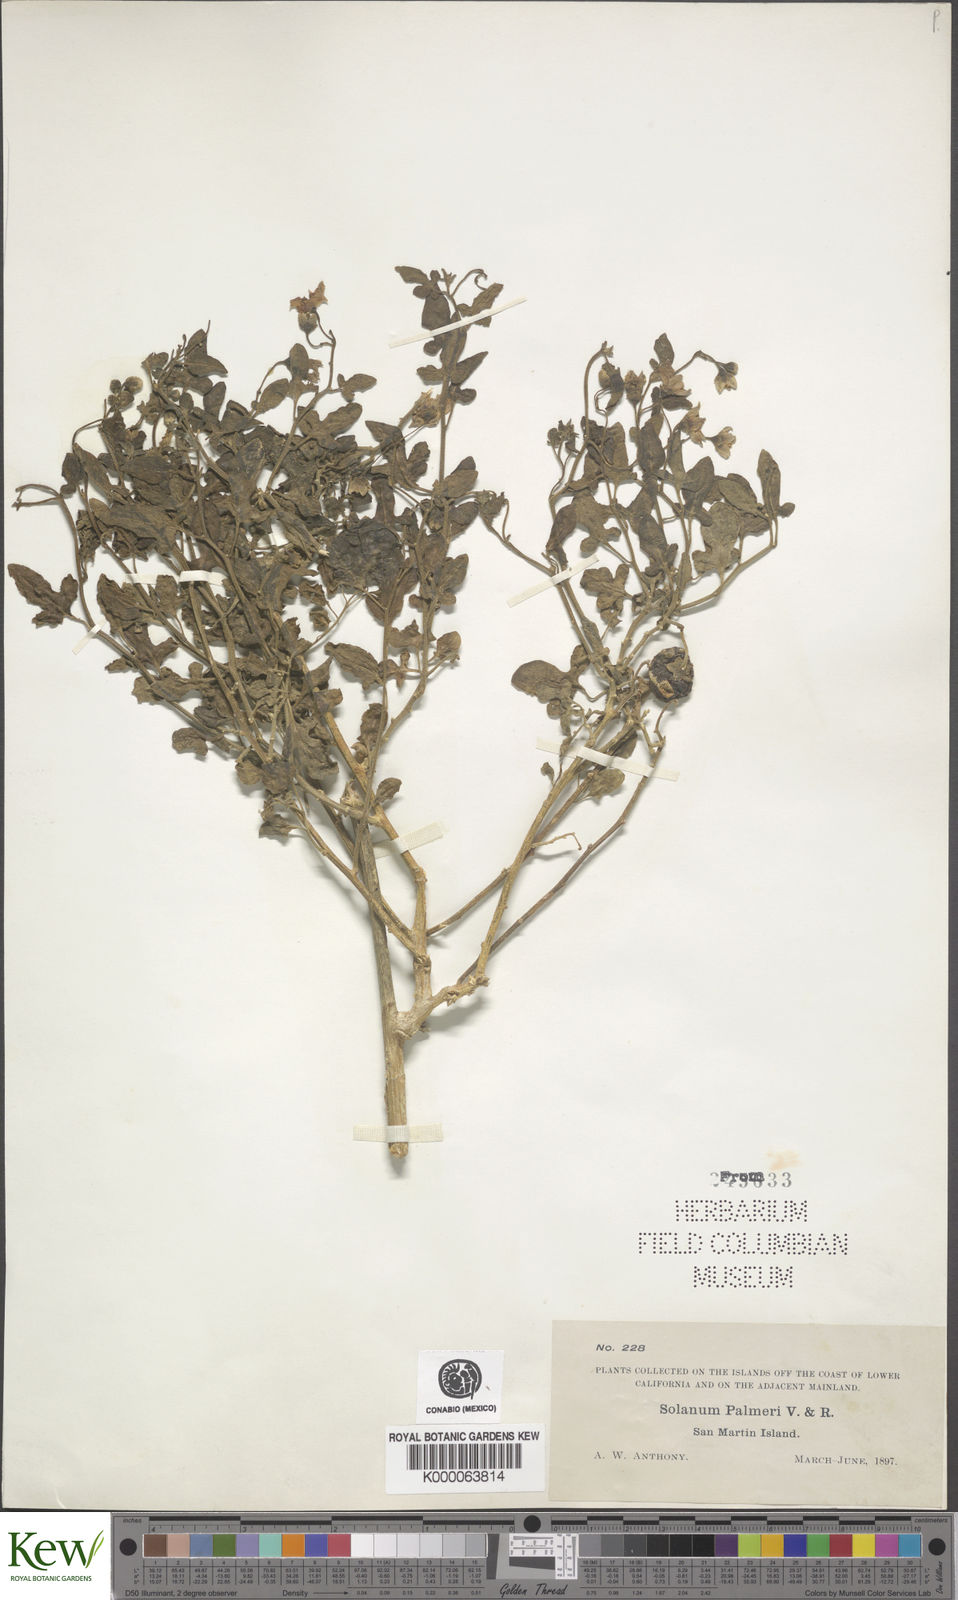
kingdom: Plantae
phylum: Tracheophyta
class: Magnoliopsida
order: Solanales
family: Solanaceae
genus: Solanum
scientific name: Solanum palmeri
